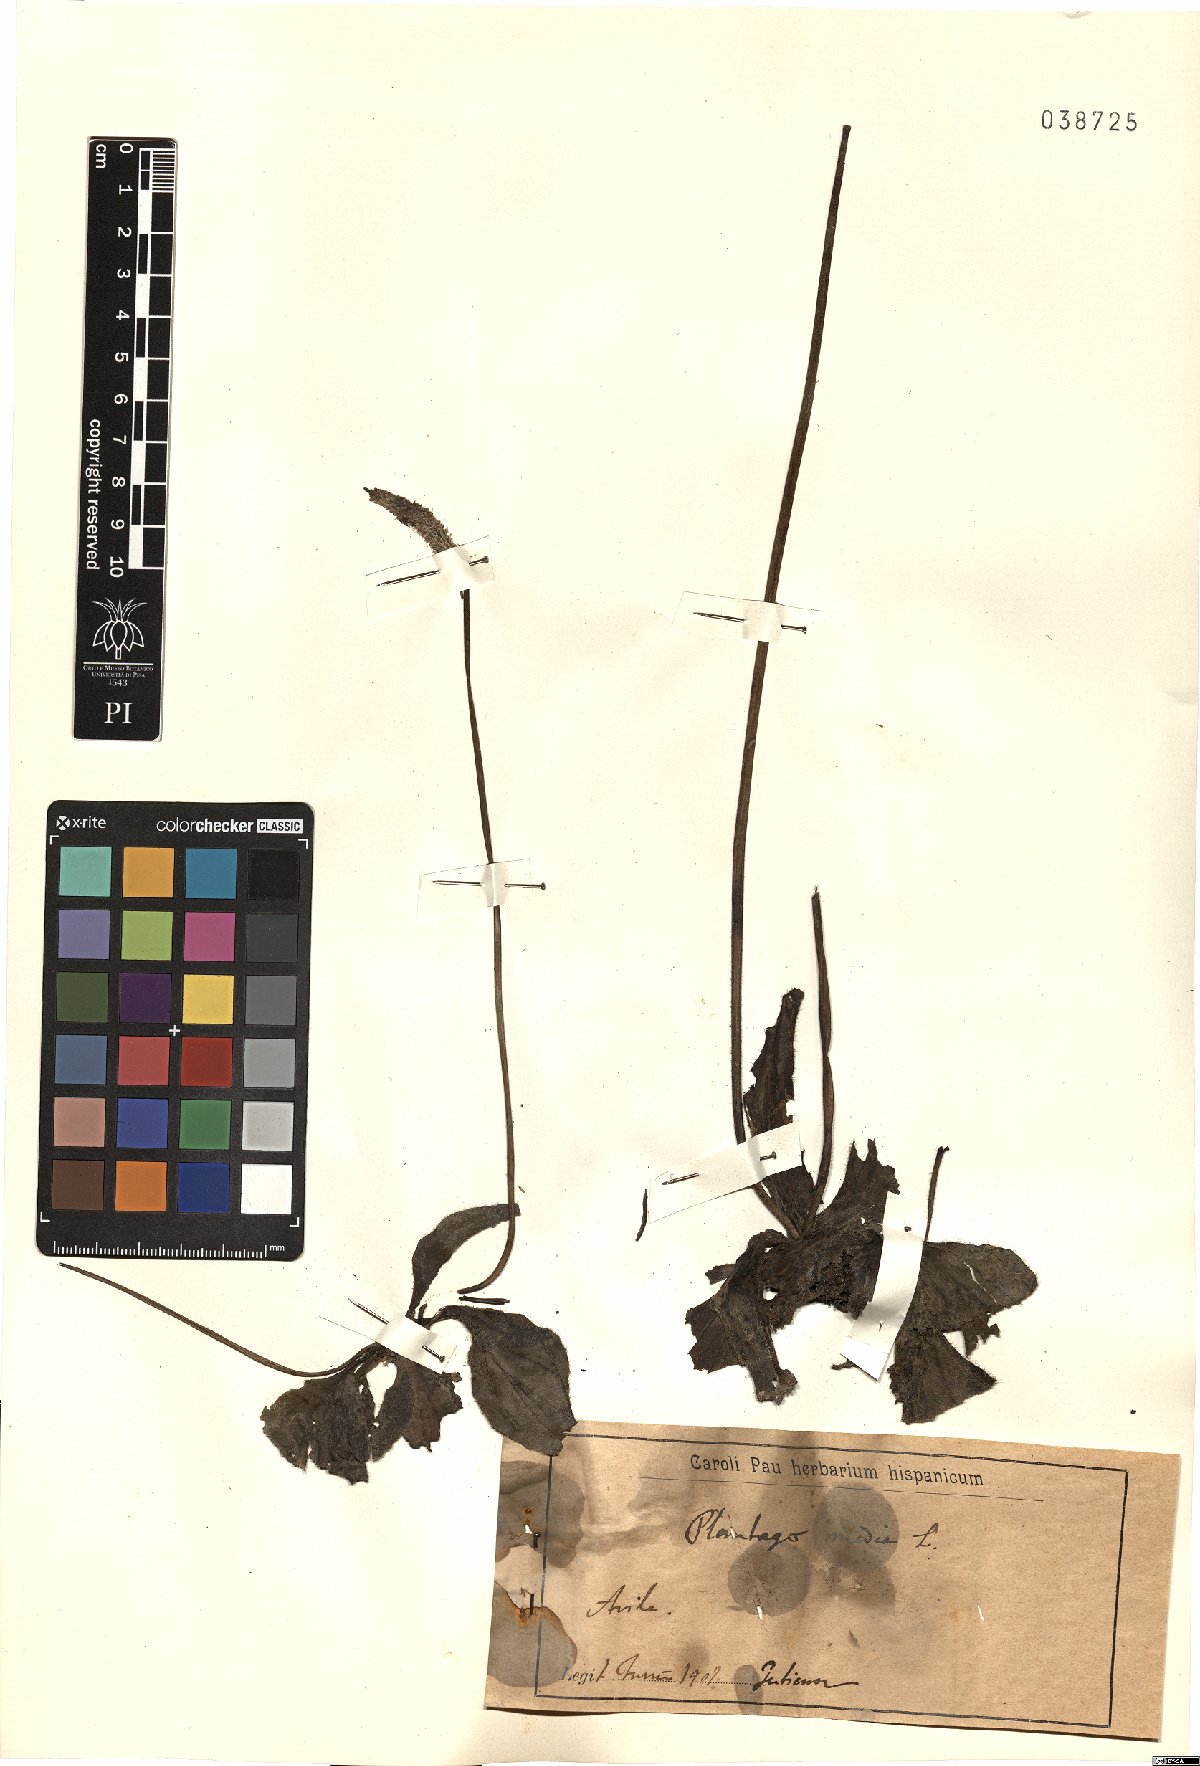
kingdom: Plantae
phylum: Tracheophyta
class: Magnoliopsida
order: Lamiales
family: Plantaginaceae
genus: Plantago
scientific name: Plantago media
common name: Hoary plantain
